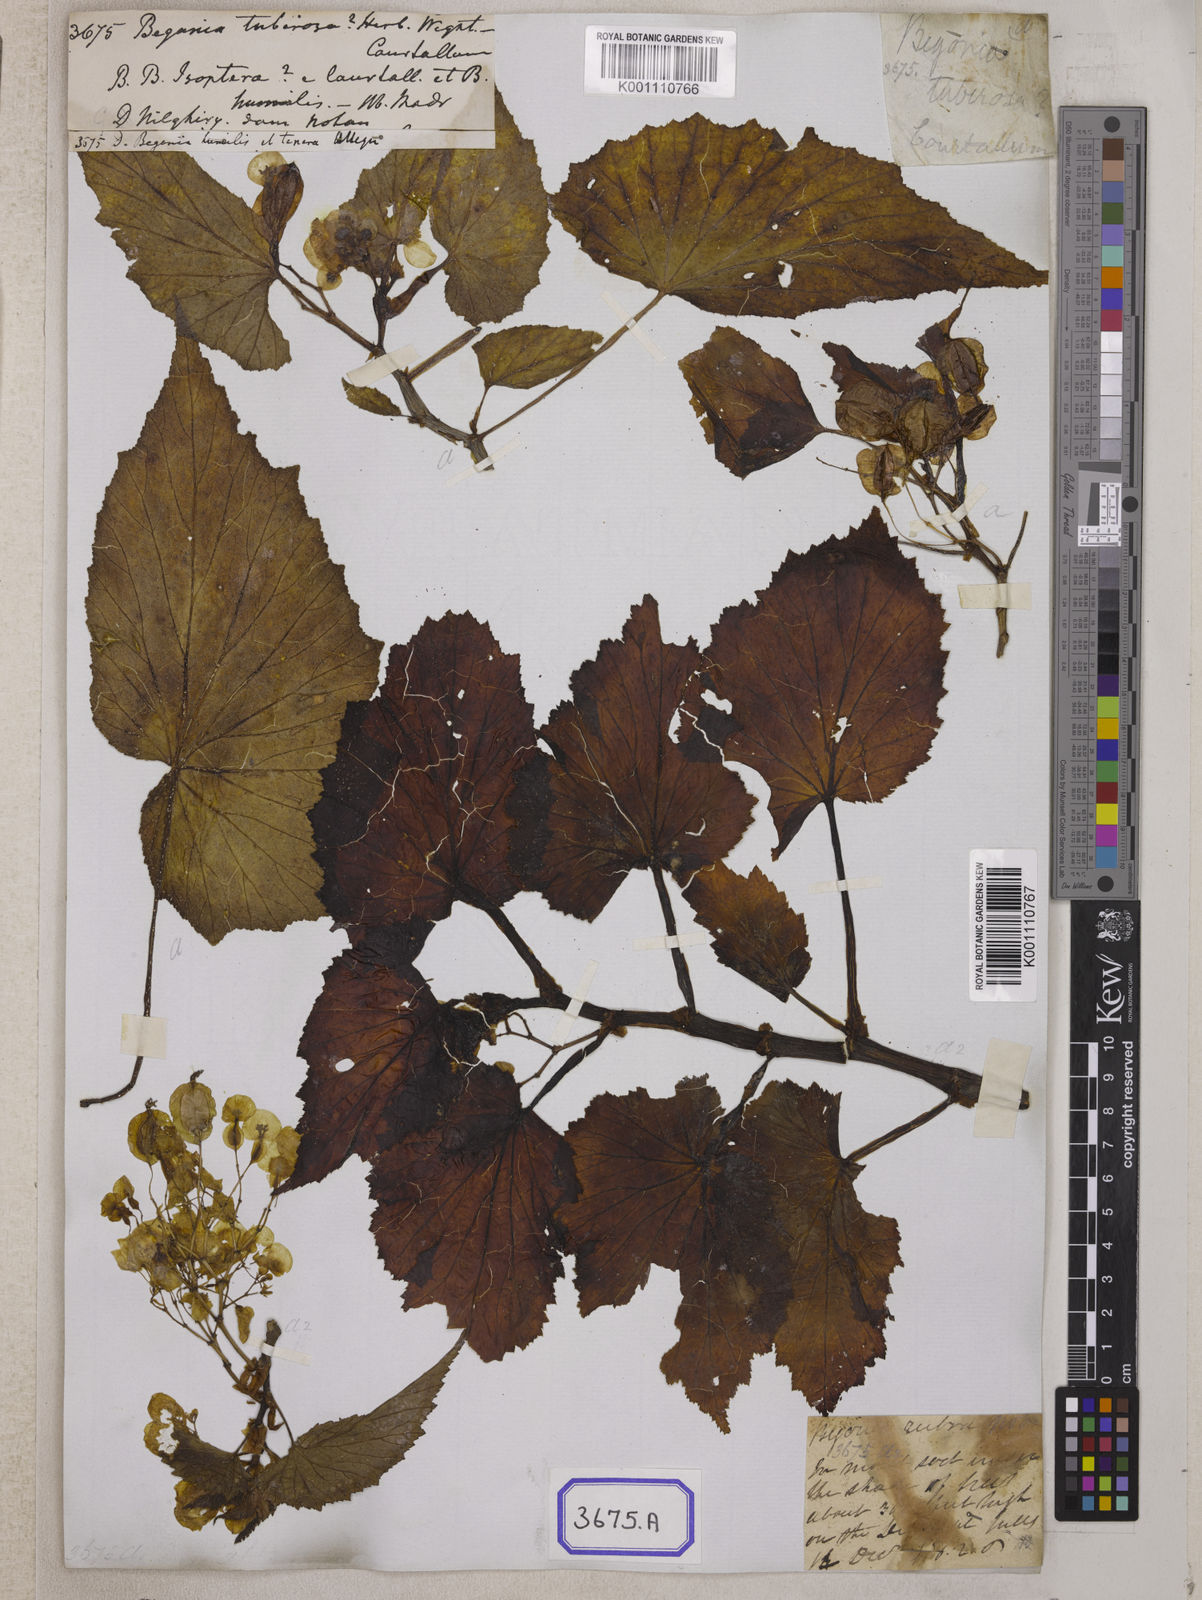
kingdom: Plantae
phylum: Tracheophyta
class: Magnoliopsida
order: Cucurbitales
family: Begoniaceae
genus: Begonia
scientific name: Begonia
